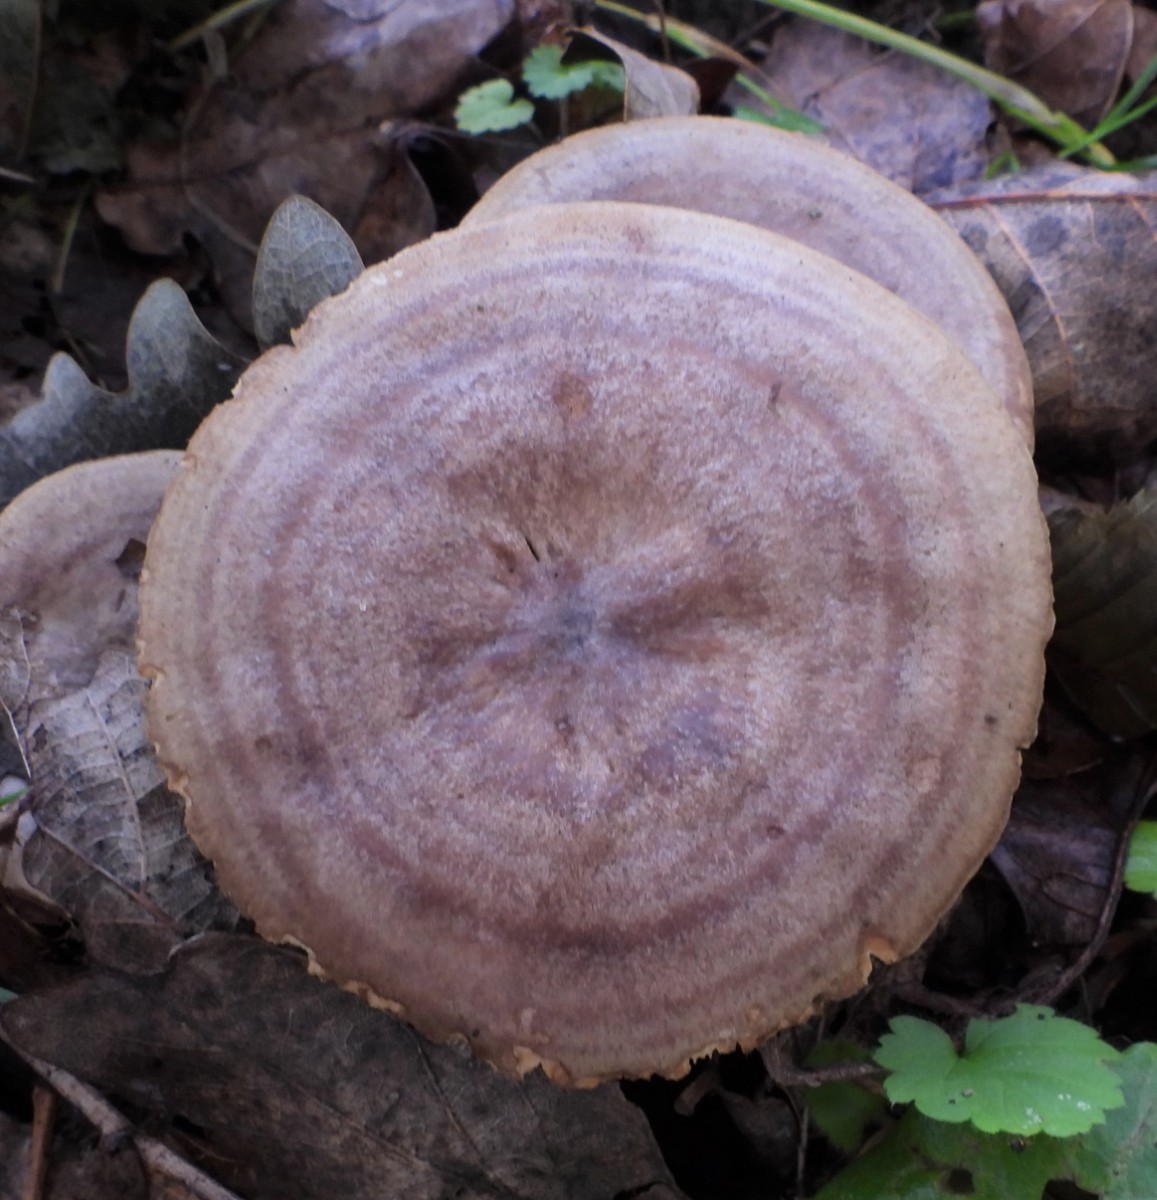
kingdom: Fungi
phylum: Basidiomycota
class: Agaricomycetes
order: Russulales
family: Russulaceae
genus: Lactarius
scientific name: Lactarius circellatus
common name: avnbøg-mælkehat
